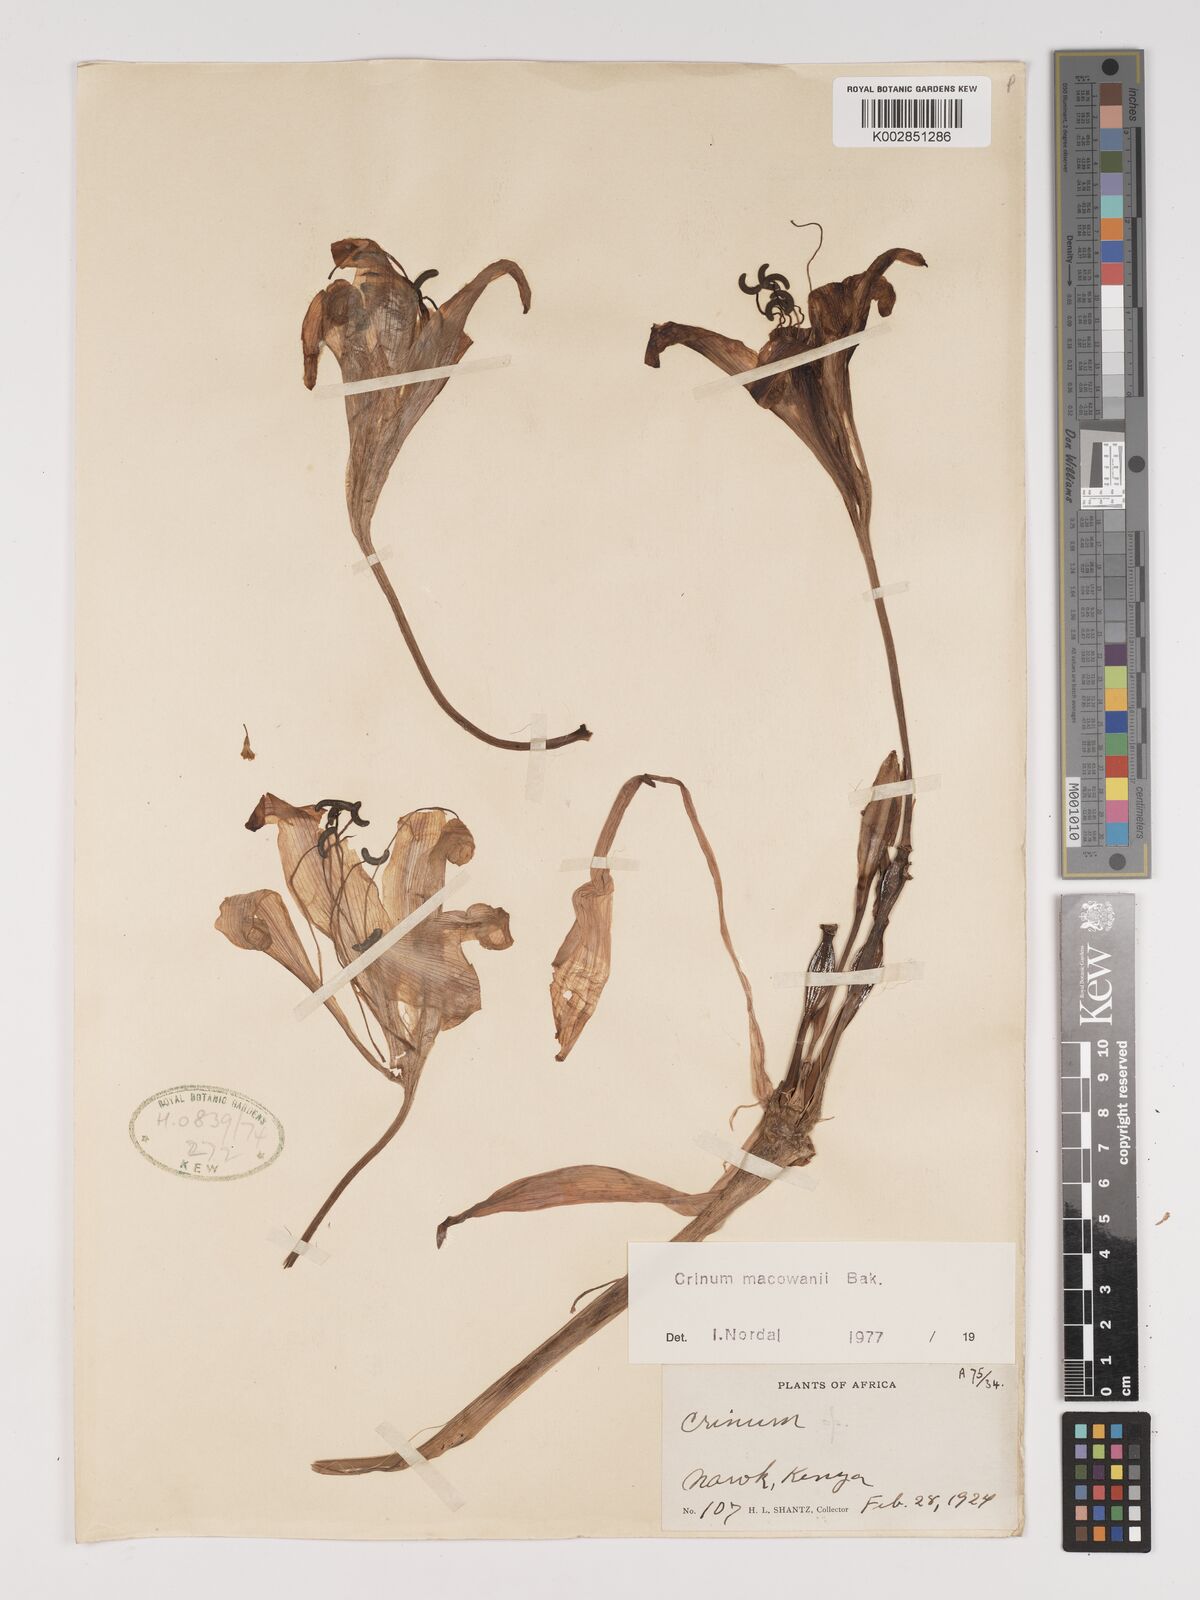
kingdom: Plantae
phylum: Tracheophyta
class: Liliopsida
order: Asparagales
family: Amaryllidaceae
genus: Crinum
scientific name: Crinum macowanii
